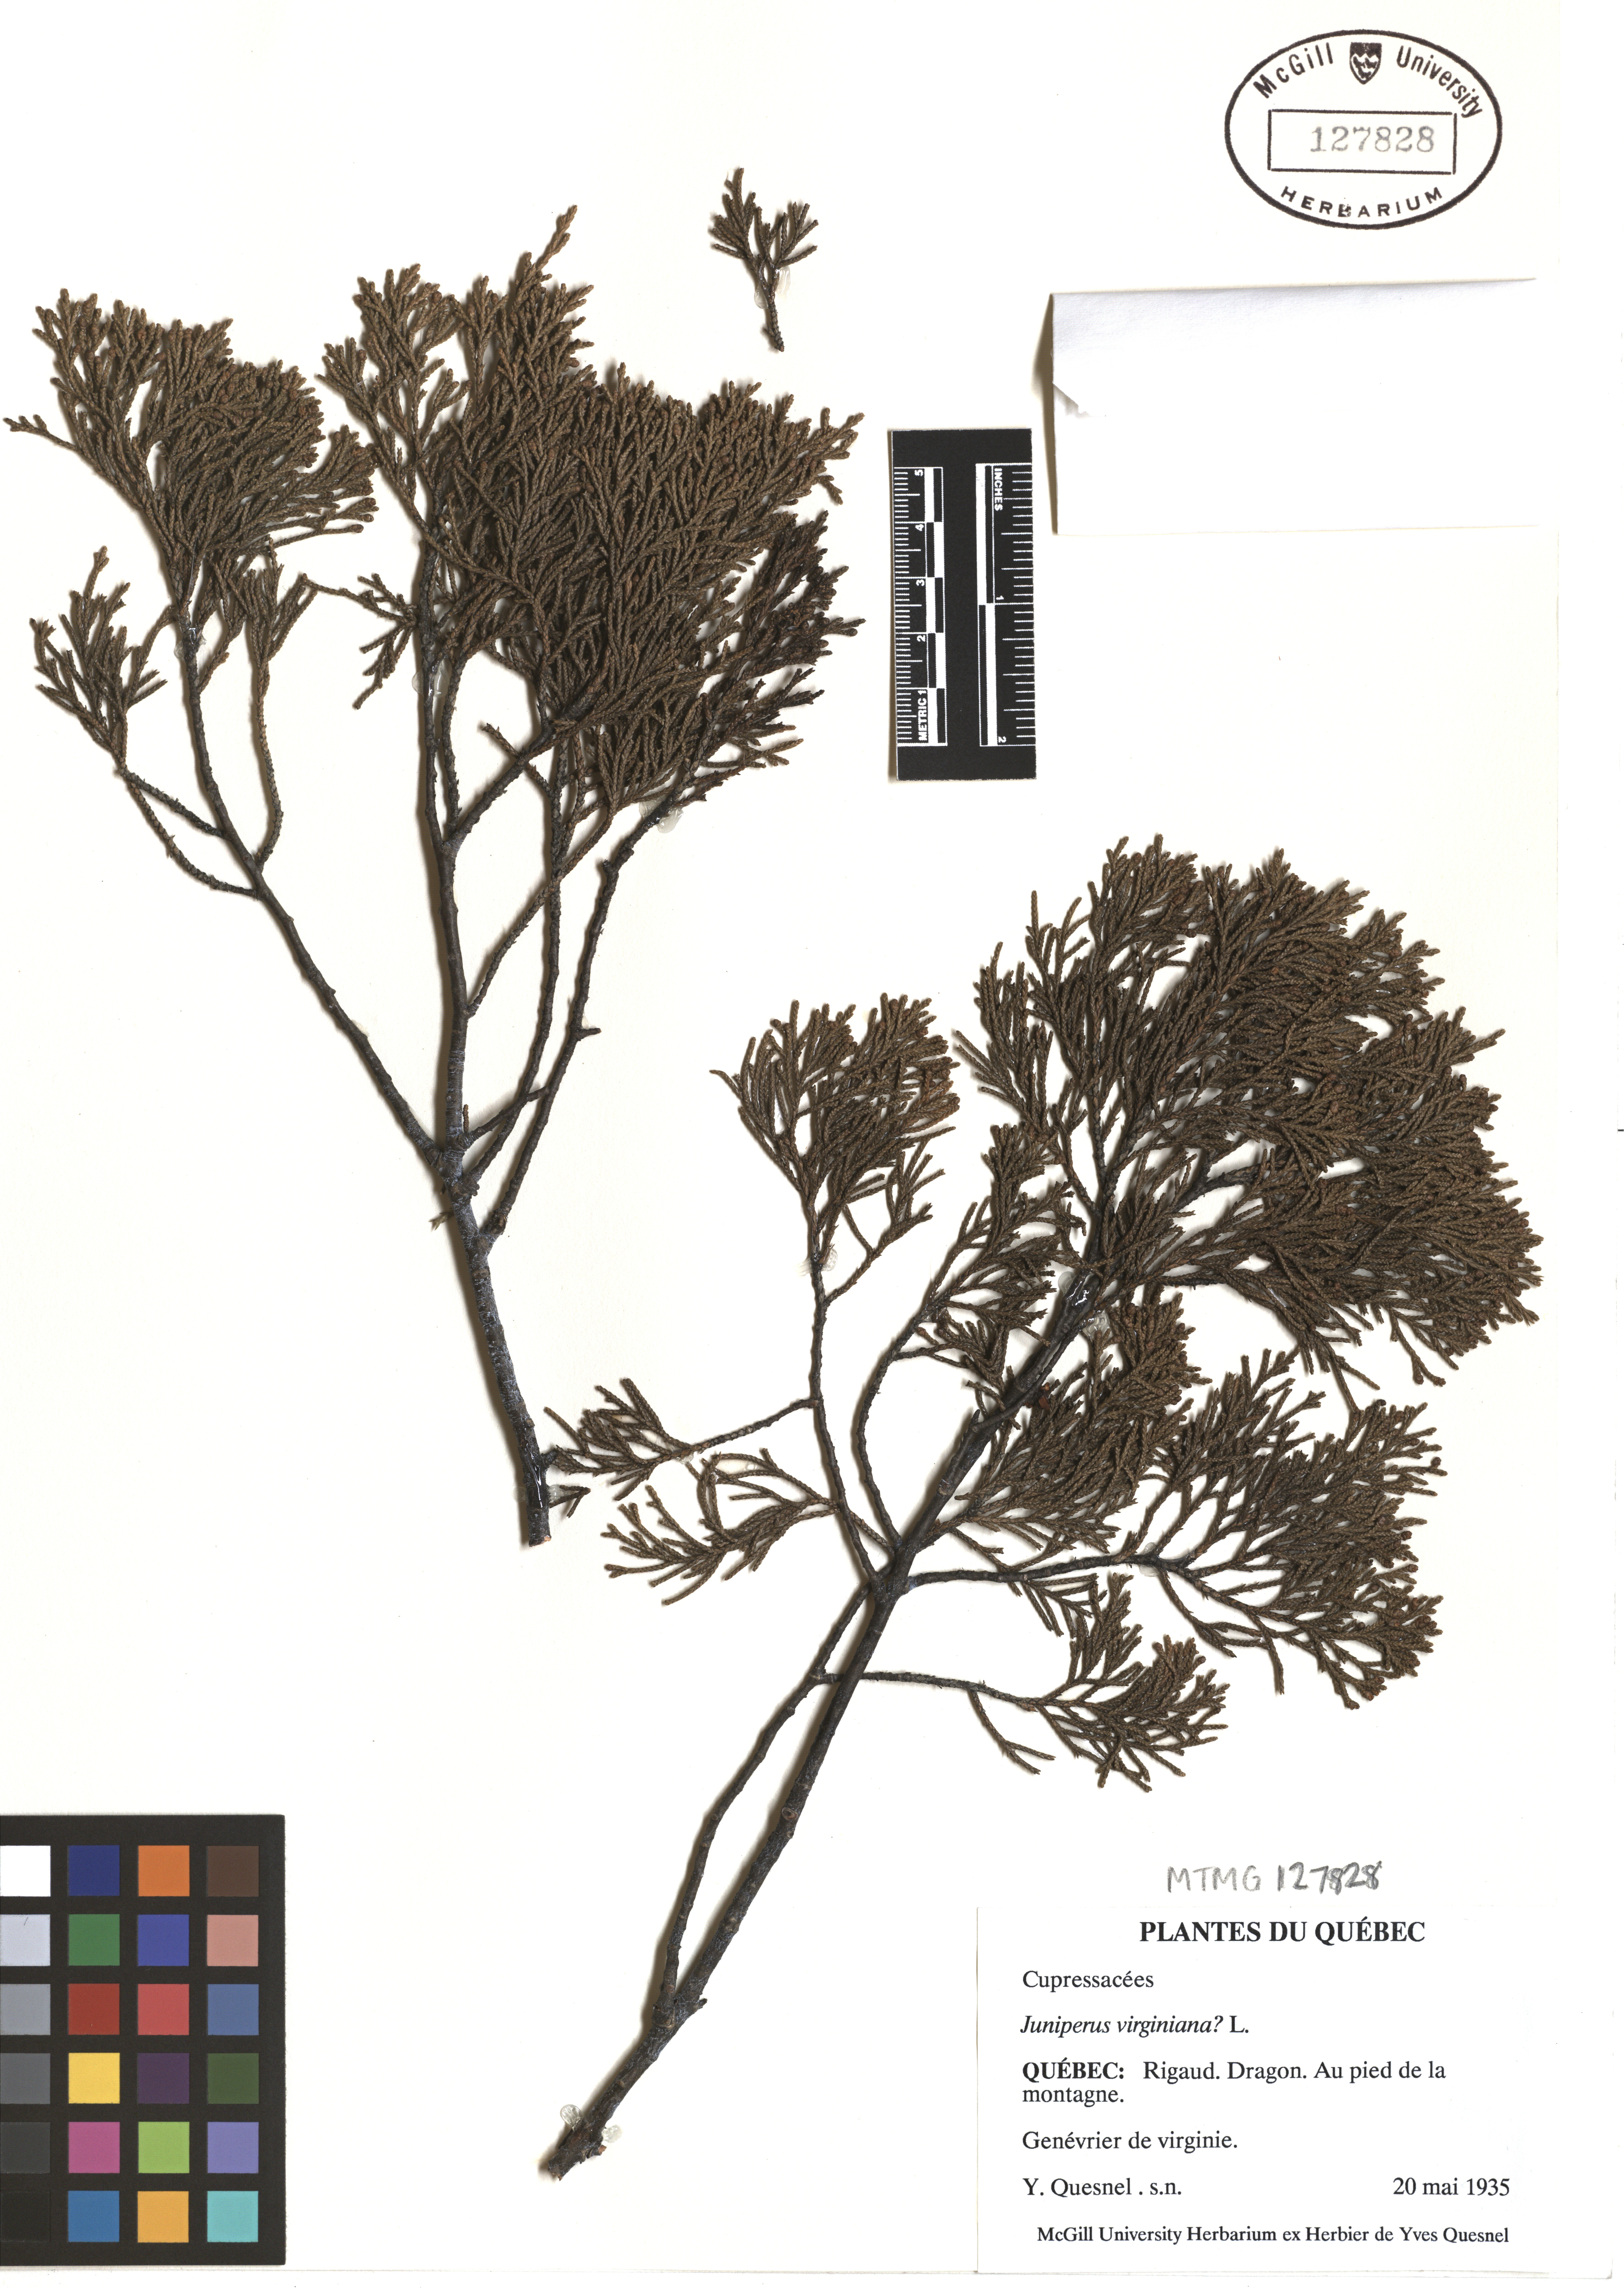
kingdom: Plantae
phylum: Tracheophyta
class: Pinopsida
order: Pinales
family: Cupressaceae
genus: Juniperus
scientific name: Juniperus virginiana
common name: Red juniper
